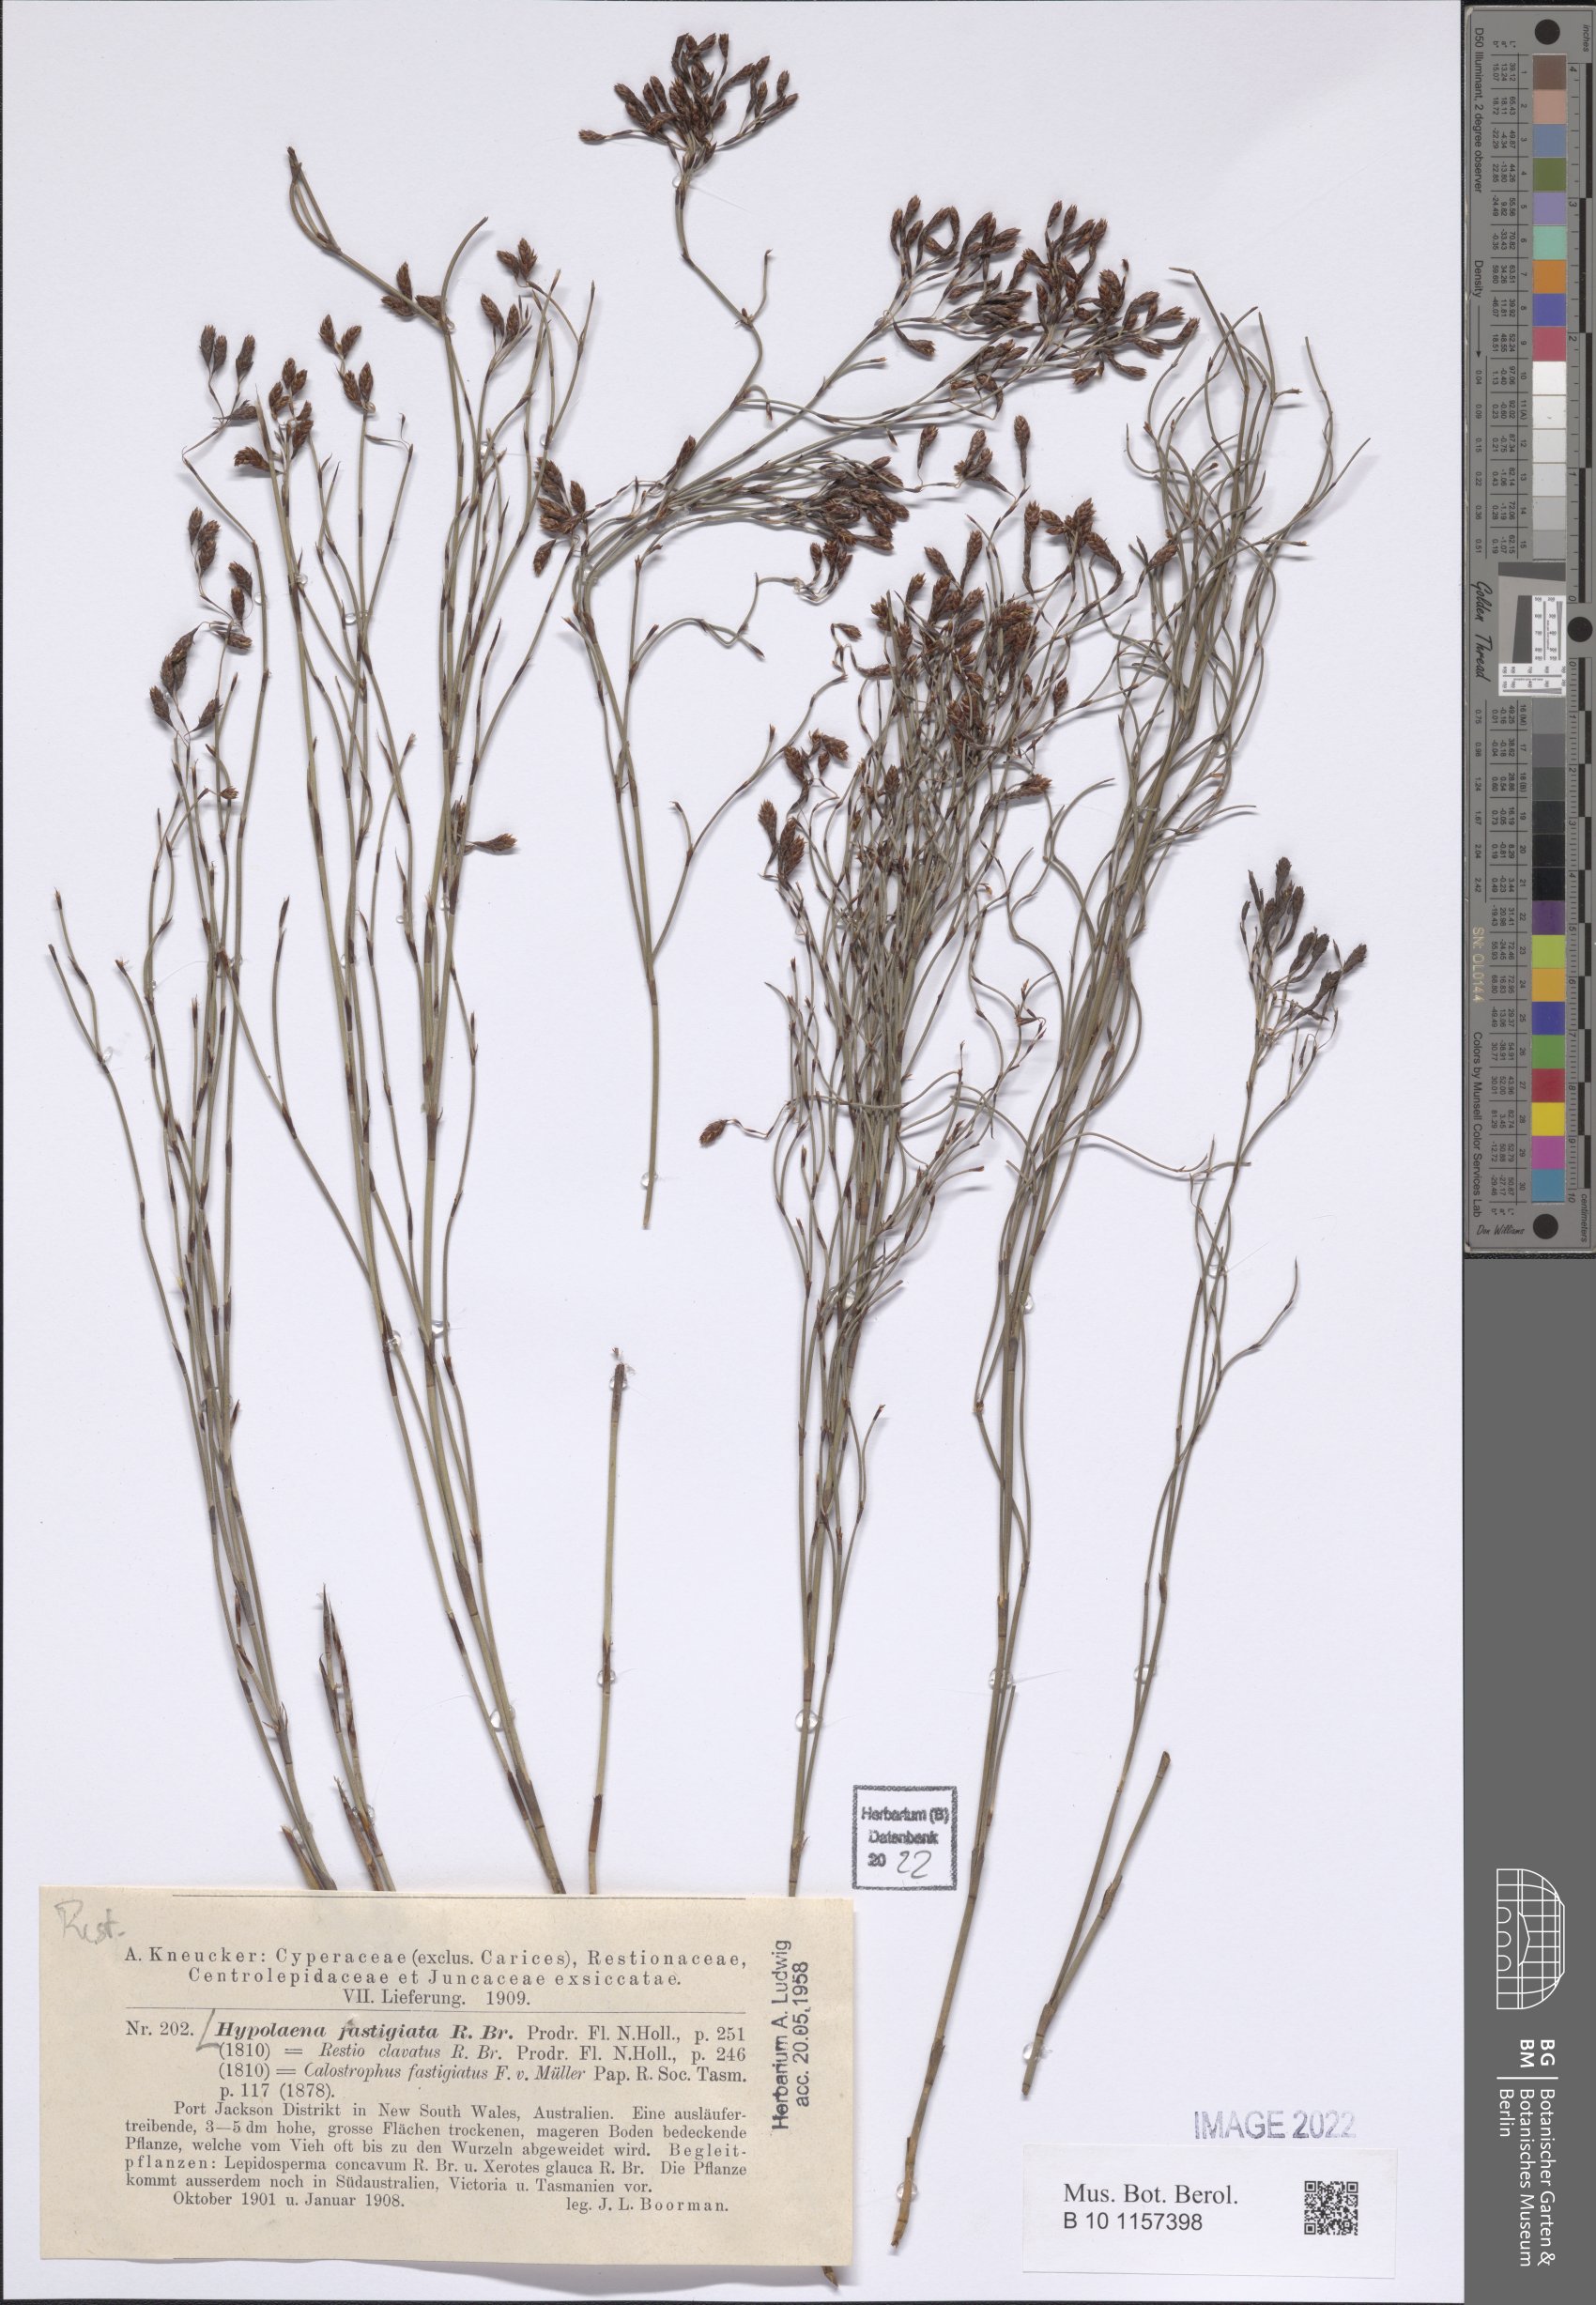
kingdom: Plantae
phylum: Tracheophyta
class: Liliopsida
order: Poales
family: Restionaceae
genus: Hypolaena
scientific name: Hypolaena fastigiata
